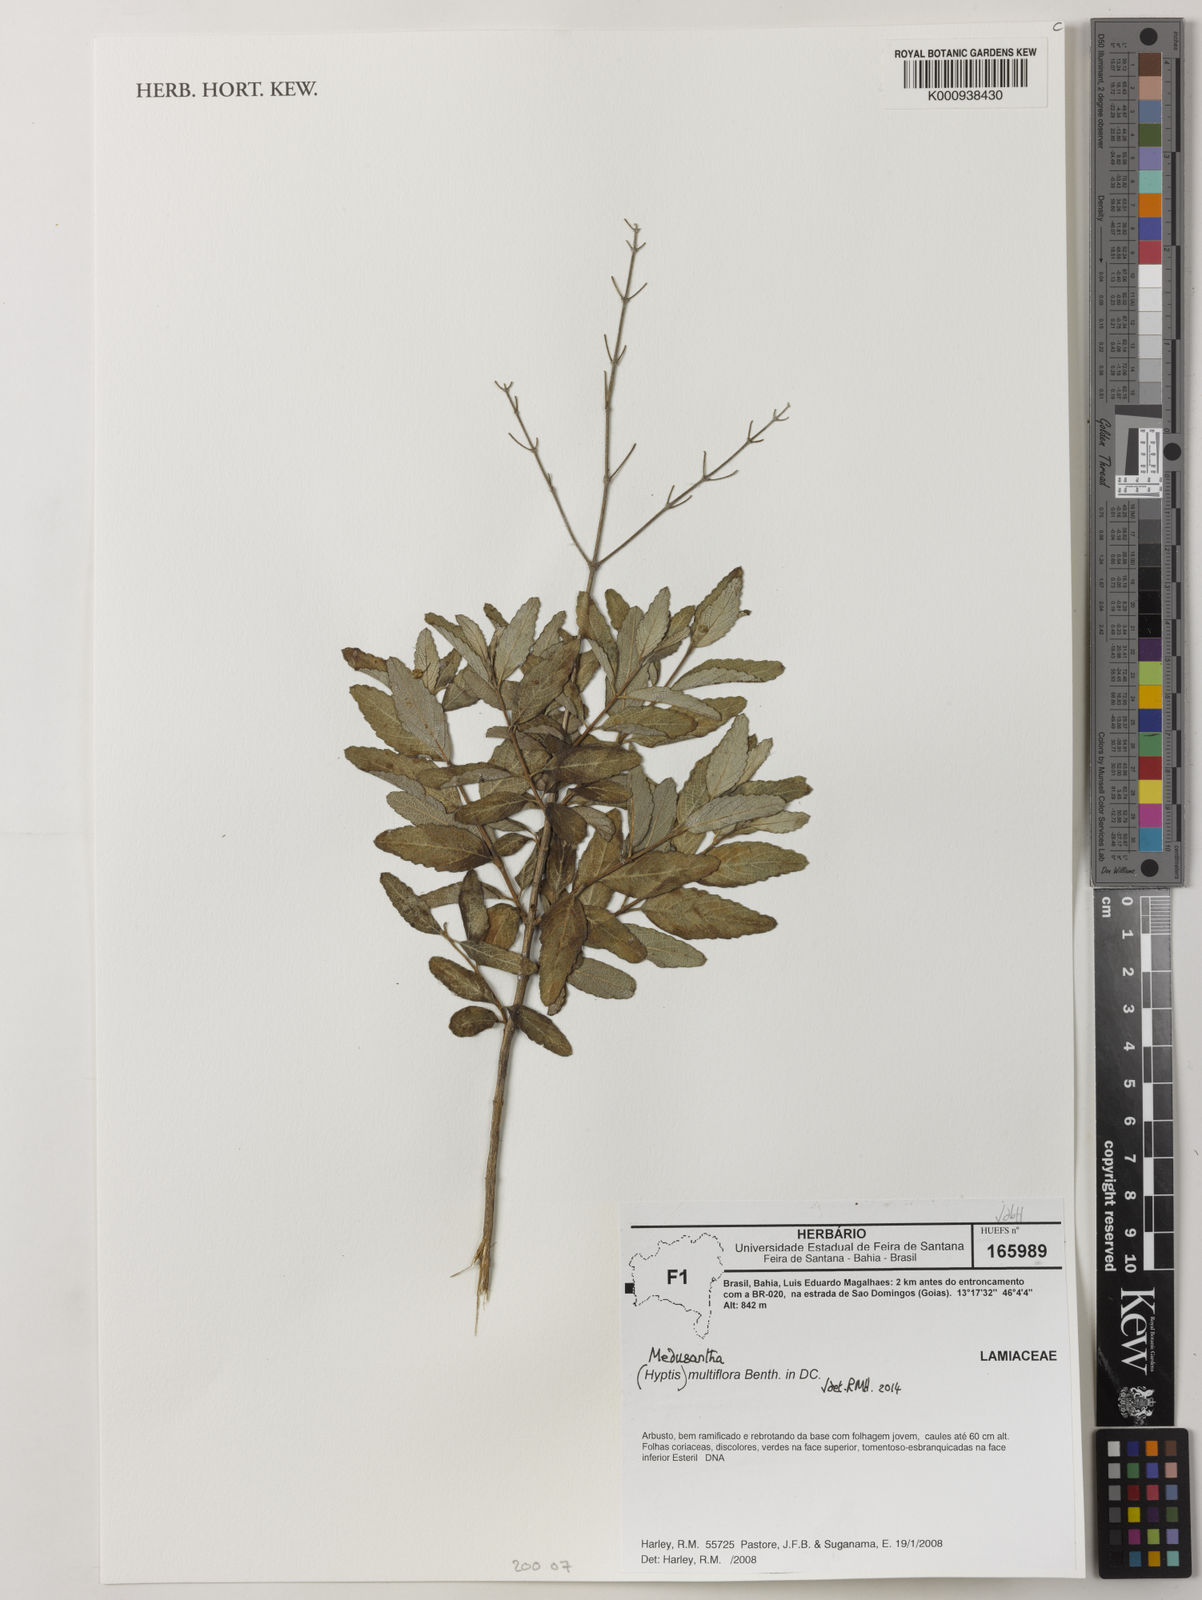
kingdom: Plantae
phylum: Tracheophyta
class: Magnoliopsida
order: Lamiales
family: Lamiaceae
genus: Medusantha
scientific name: Medusantha multiflora
